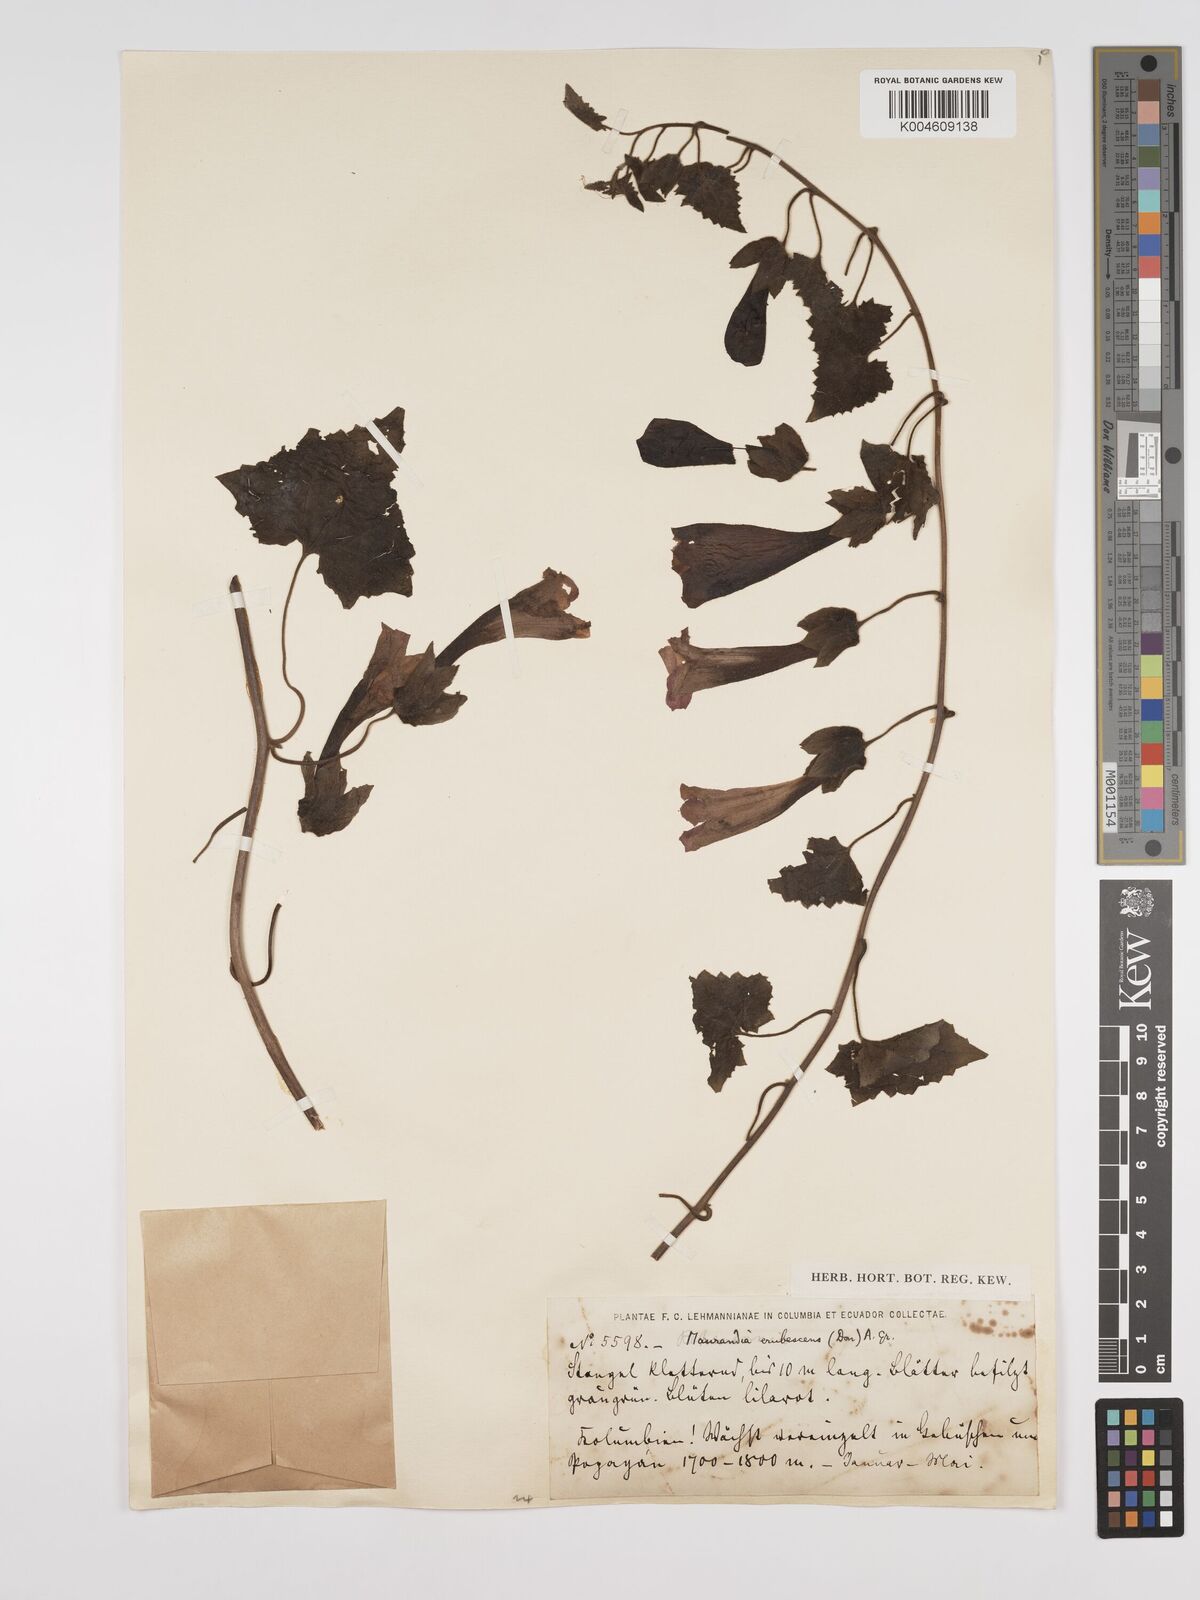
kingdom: Plantae
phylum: Tracheophyta
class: Magnoliopsida
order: Lamiales
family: Plantaginaceae
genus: Lophospermum
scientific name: Lophospermum erubescens
